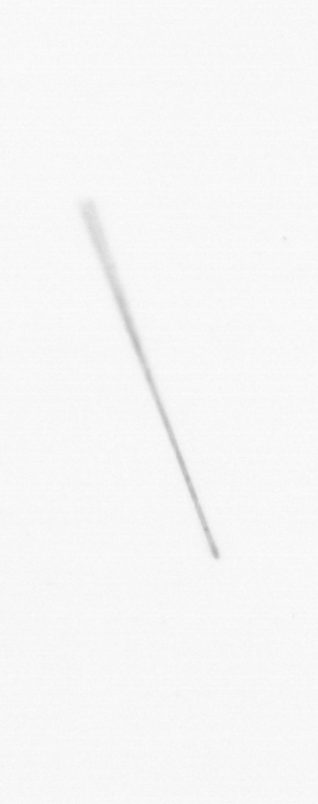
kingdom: Chromista
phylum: Ochrophyta
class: Bacillariophyceae
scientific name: Bacillariophyceae
